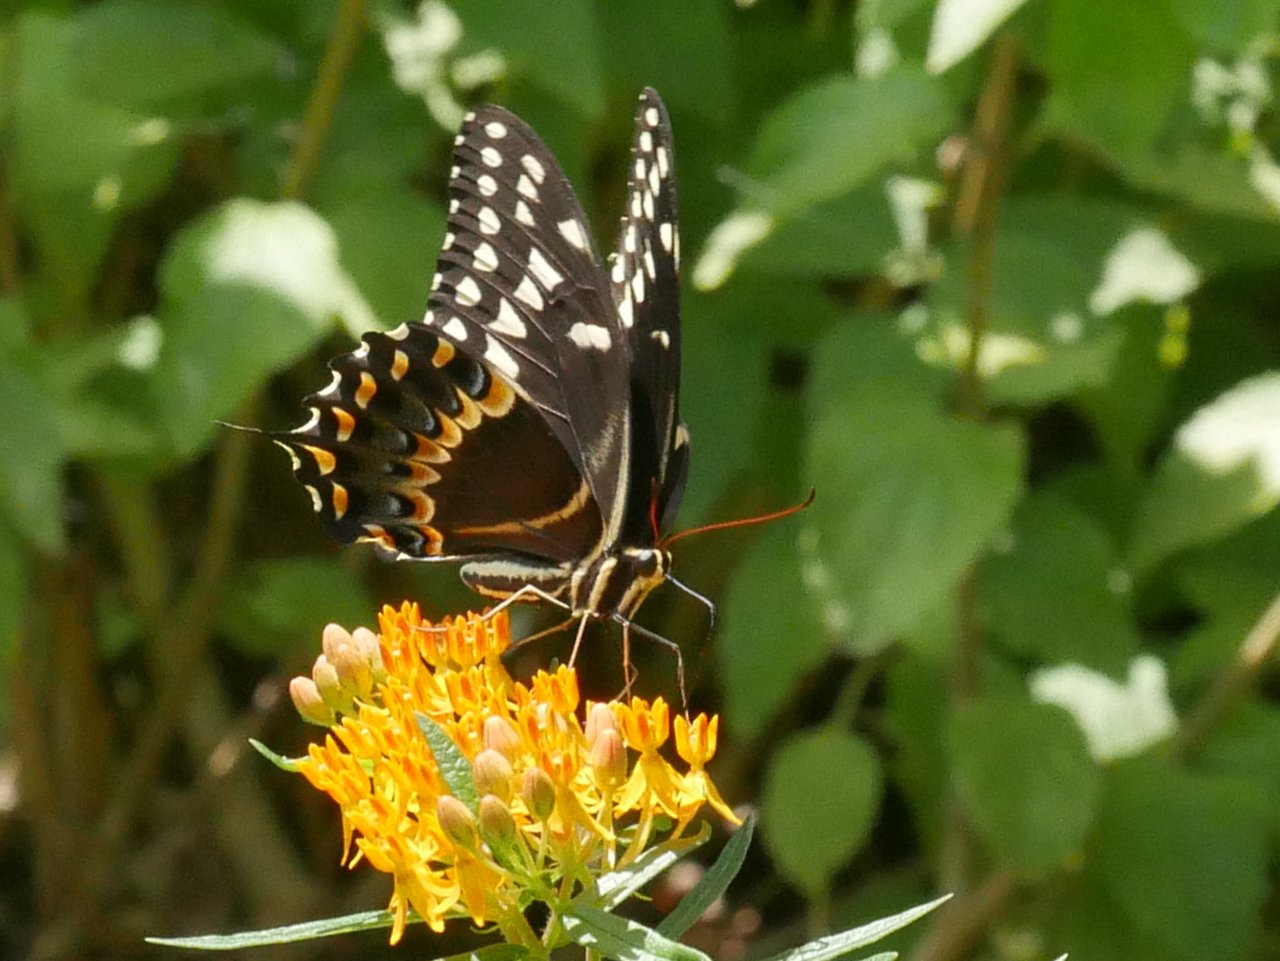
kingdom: Animalia
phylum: Arthropoda
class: Insecta
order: Lepidoptera
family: Papilionidae
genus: Pterourus
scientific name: Pterourus palamedes
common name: Palamedes Swallowtail
